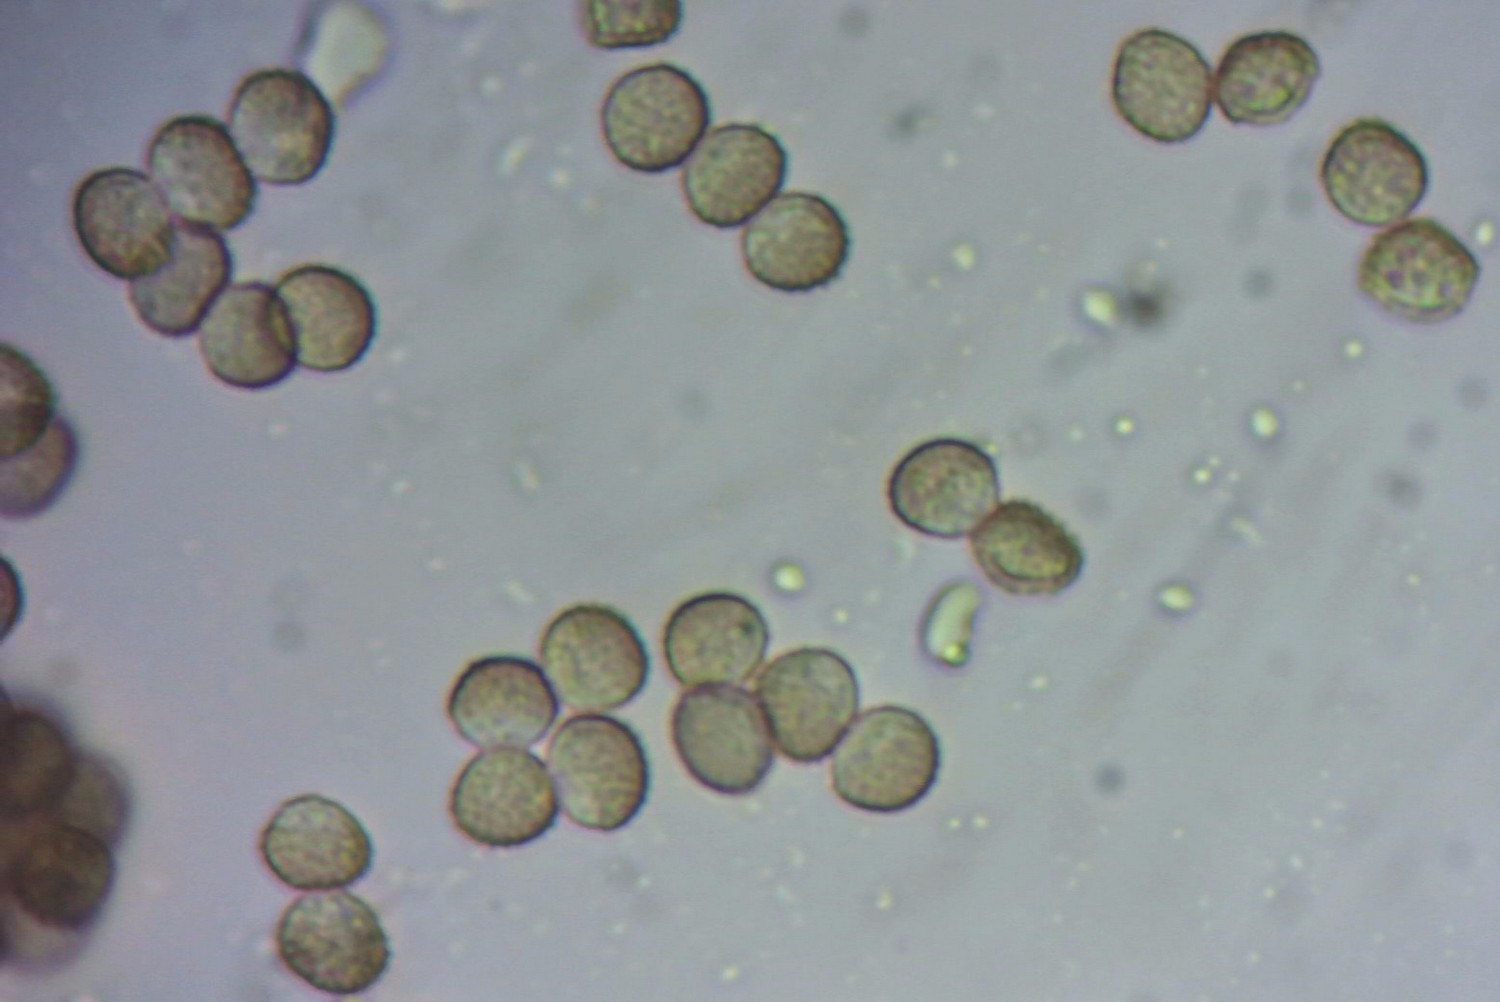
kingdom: Protozoa
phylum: Mycetozoa
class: Myxomycetes
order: Cribrariales
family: Tubiferaceae
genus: Reticularia
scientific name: Reticularia lycoperdon
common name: skinnende støvpude
